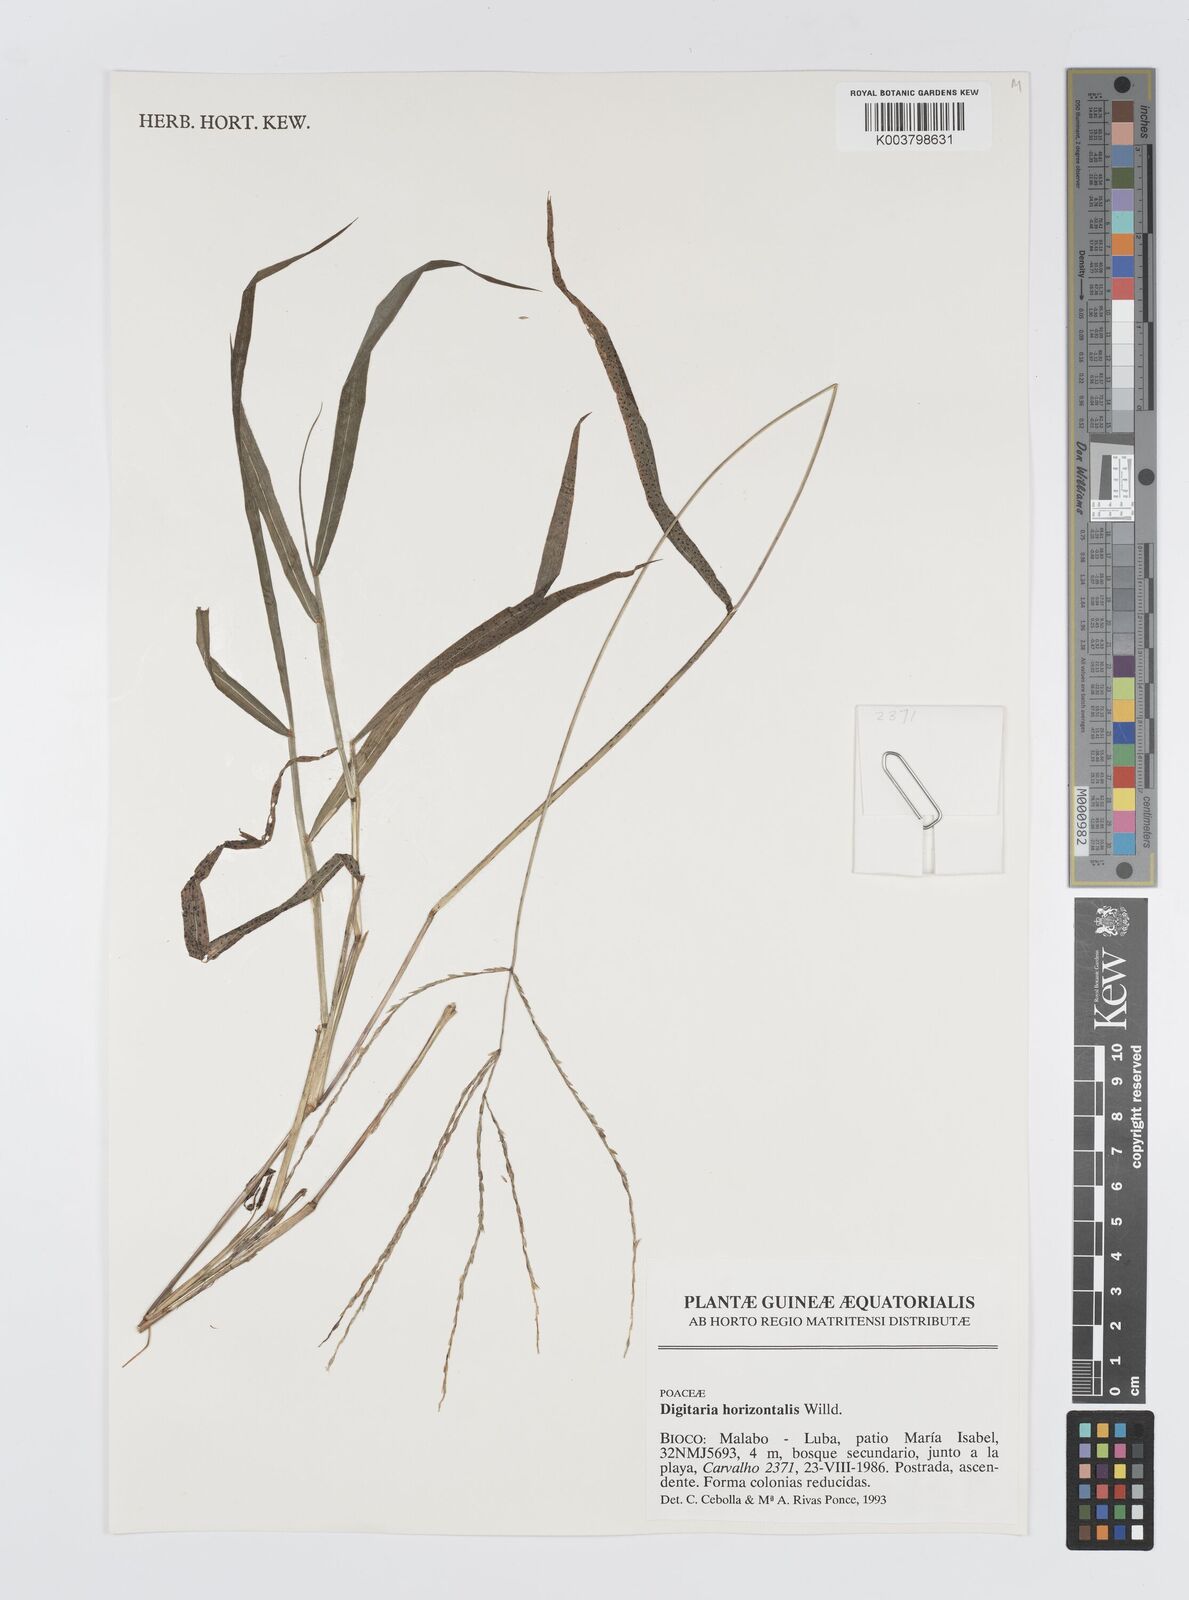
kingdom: Plantae
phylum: Tracheophyta
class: Liliopsida
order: Poales
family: Poaceae
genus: Digitaria
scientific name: Digitaria horizontalis
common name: Jamaican crabgrass
